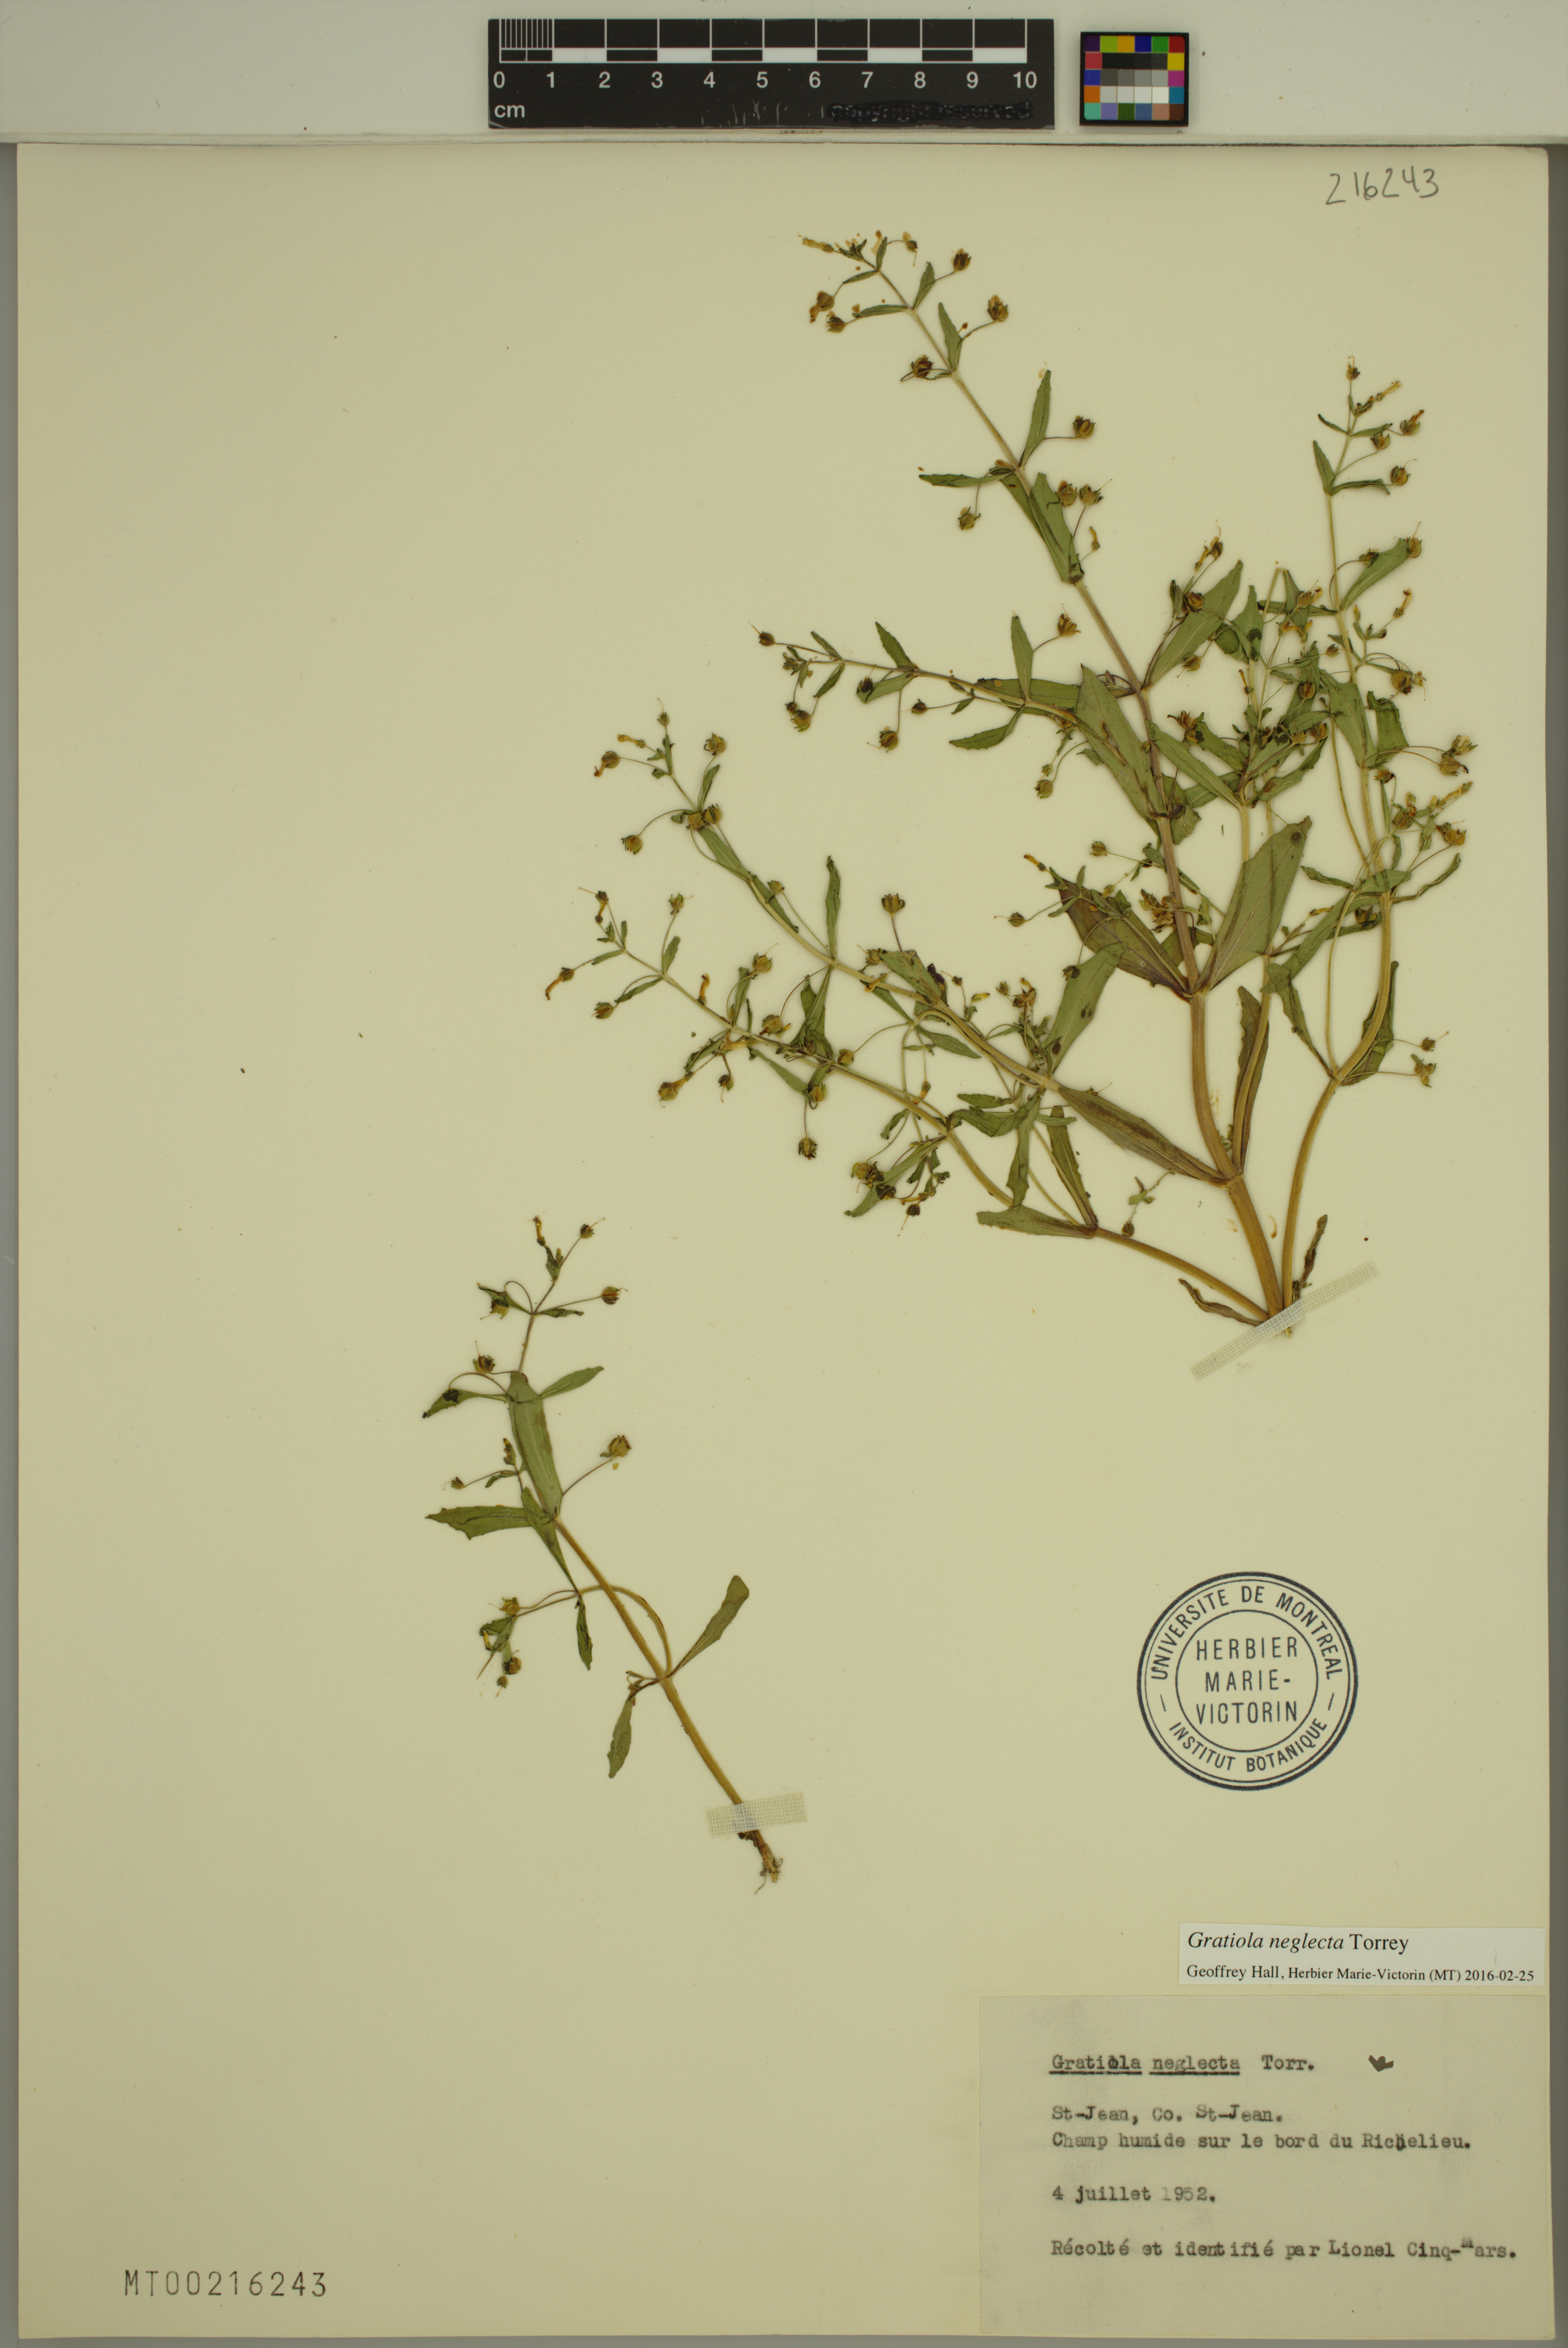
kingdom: Plantae
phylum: Tracheophyta
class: Magnoliopsida
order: Lamiales
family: Plantaginaceae
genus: Gratiola
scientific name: Gratiola neglecta
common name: American hedge-hyssop
